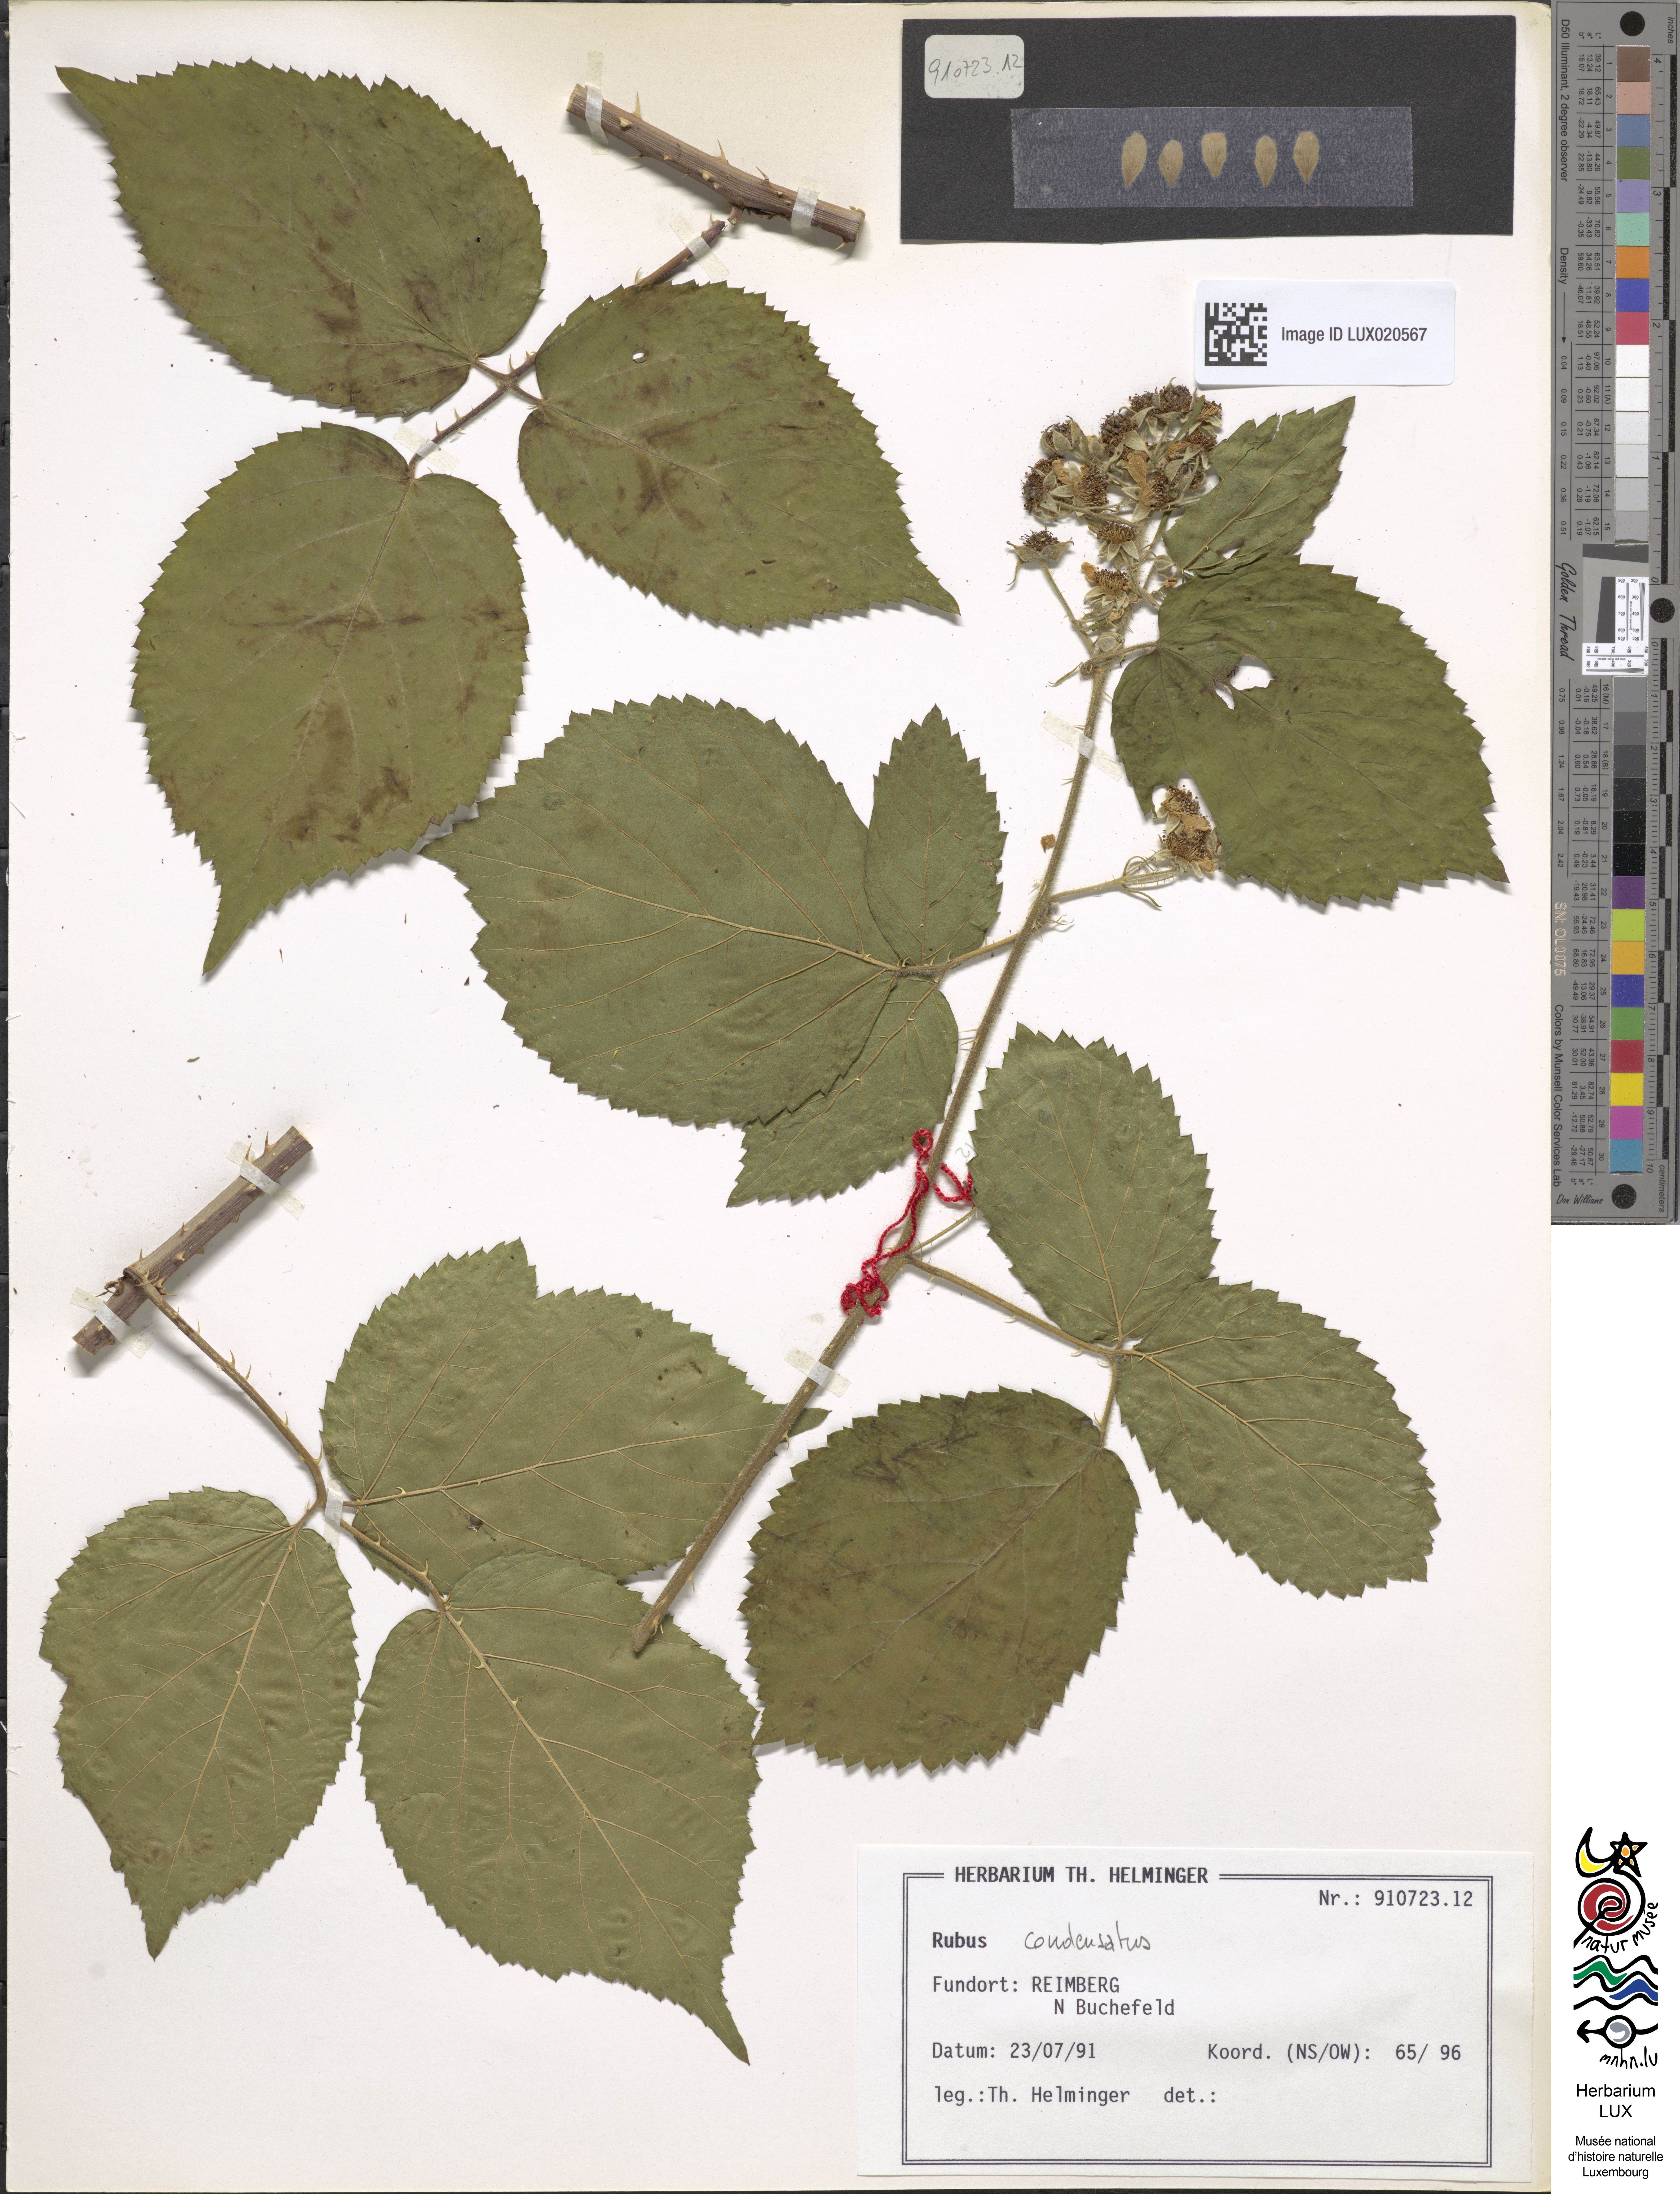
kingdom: Plantae
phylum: Tracheophyta
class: Magnoliopsida
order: Rosales
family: Rosaceae
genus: Rubus
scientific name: Rubus condensatus
